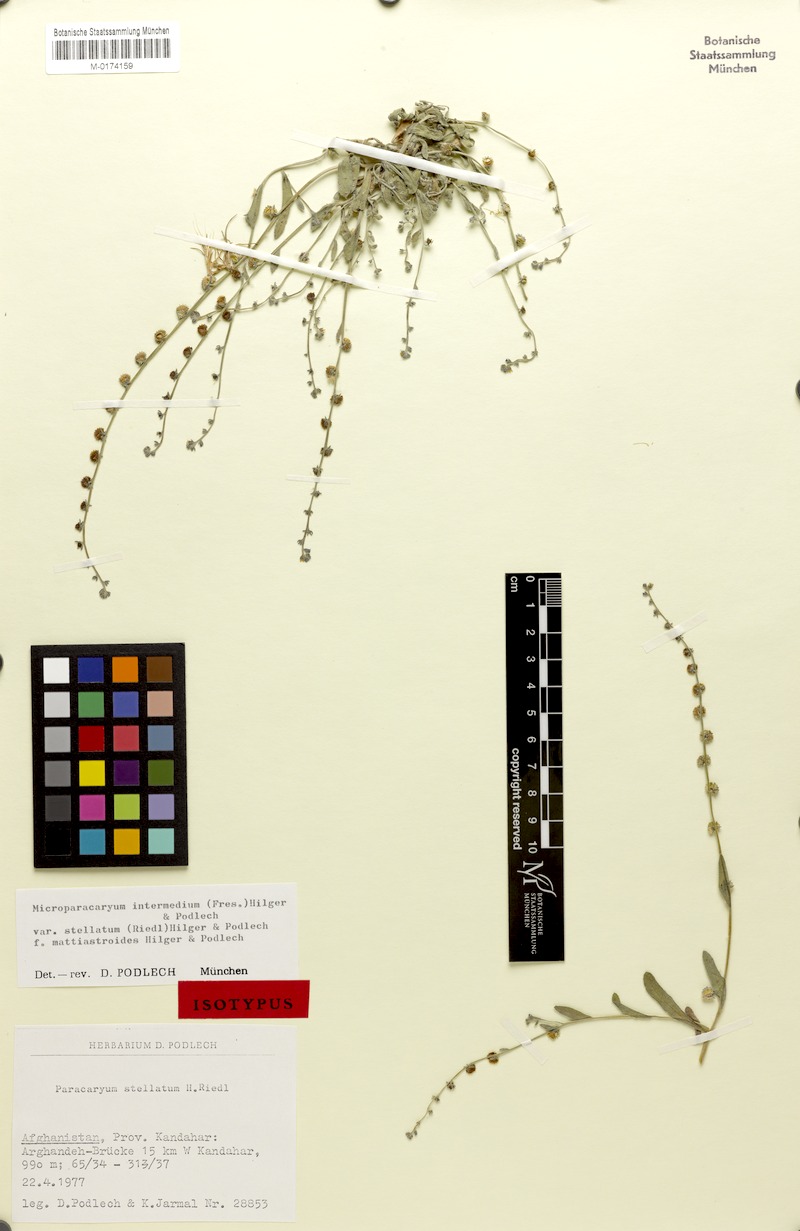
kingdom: Plantae
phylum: Tracheophyta
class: Magnoliopsida
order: Boraginales
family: Boraginaceae
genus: Microparacaryum
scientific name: Microparacaryum intermedium
